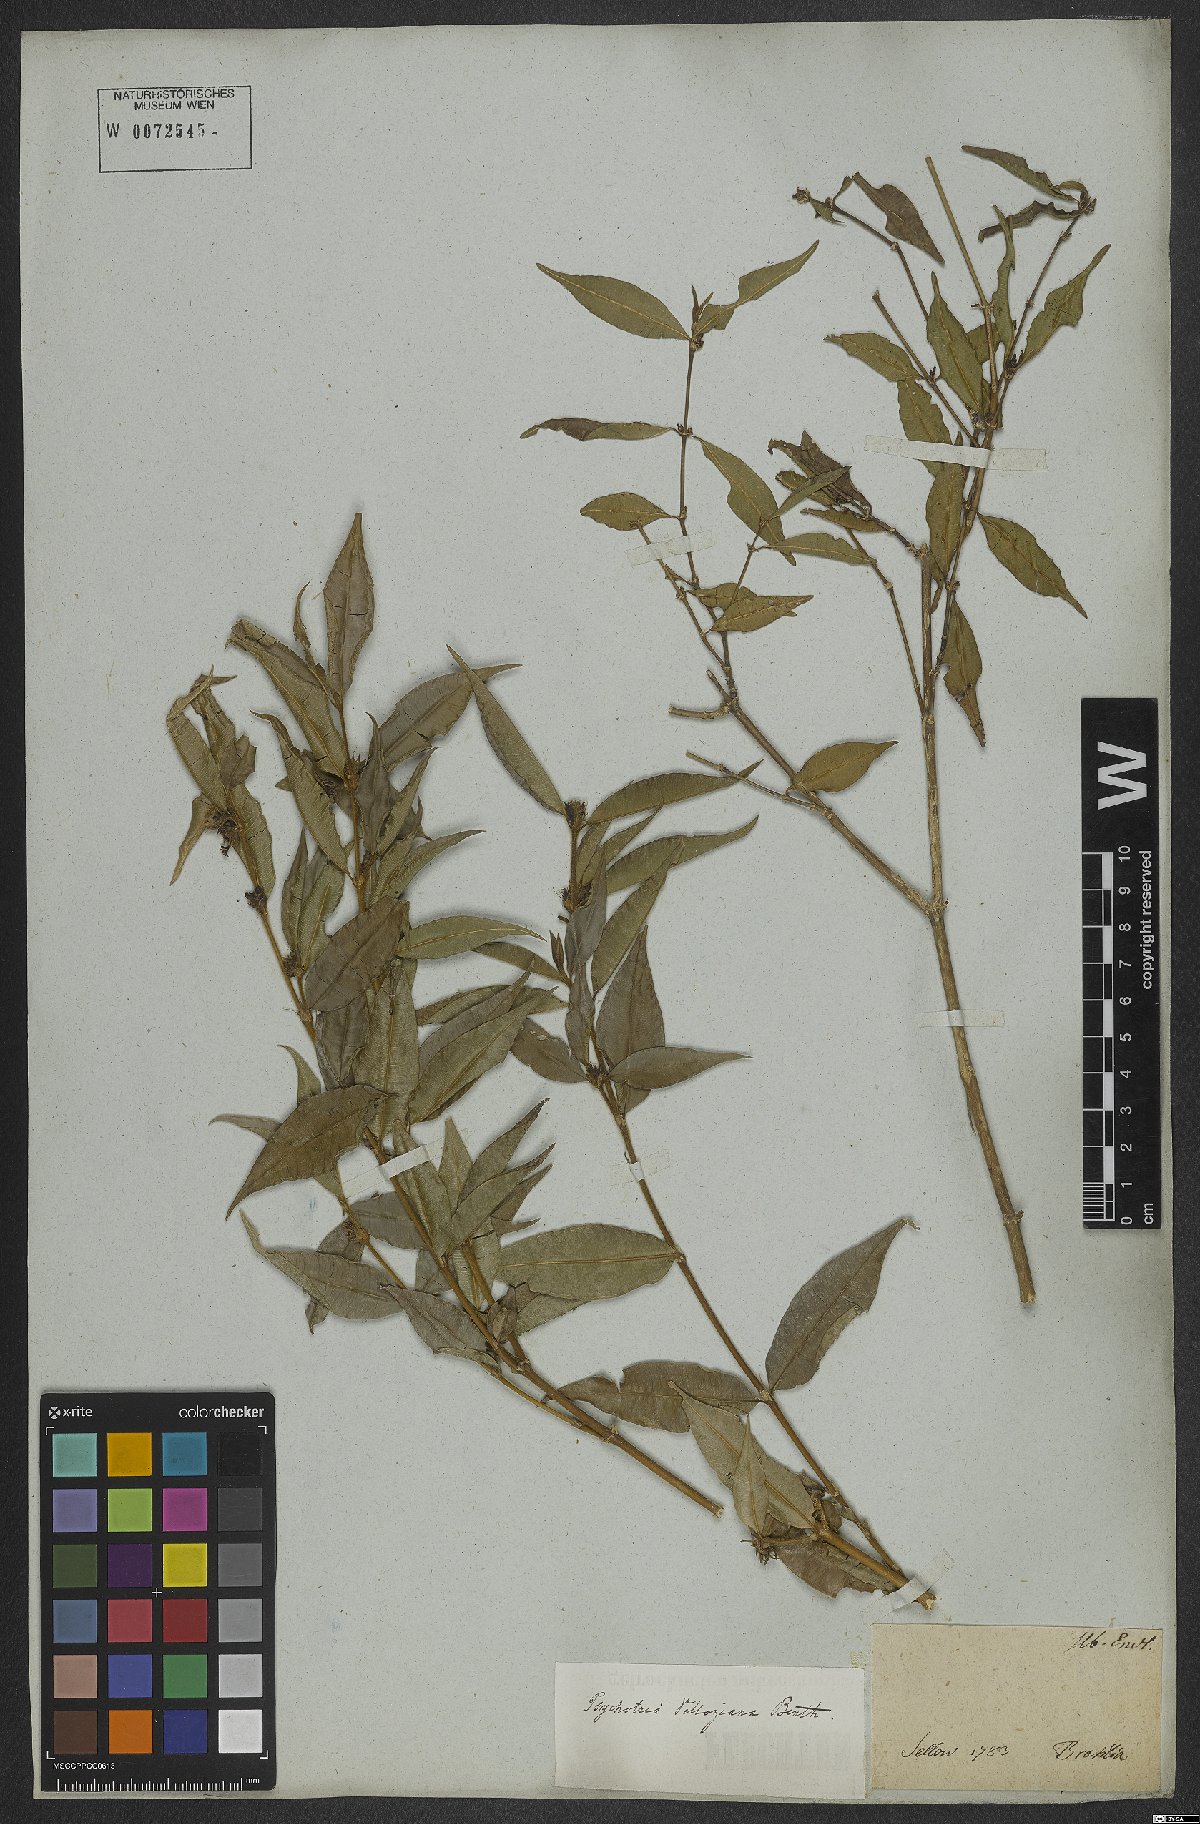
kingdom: Plantae
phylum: Tracheophyta
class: Magnoliopsida
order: Gentianales
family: Rubiaceae
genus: Palicourea
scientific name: Palicourea sessilis
